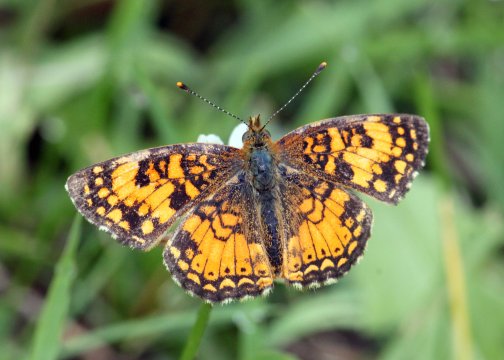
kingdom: Animalia
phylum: Arthropoda
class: Insecta
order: Lepidoptera
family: Nymphalidae
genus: Eresia
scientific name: Eresia aveyrona
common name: Mylitta Crescent
